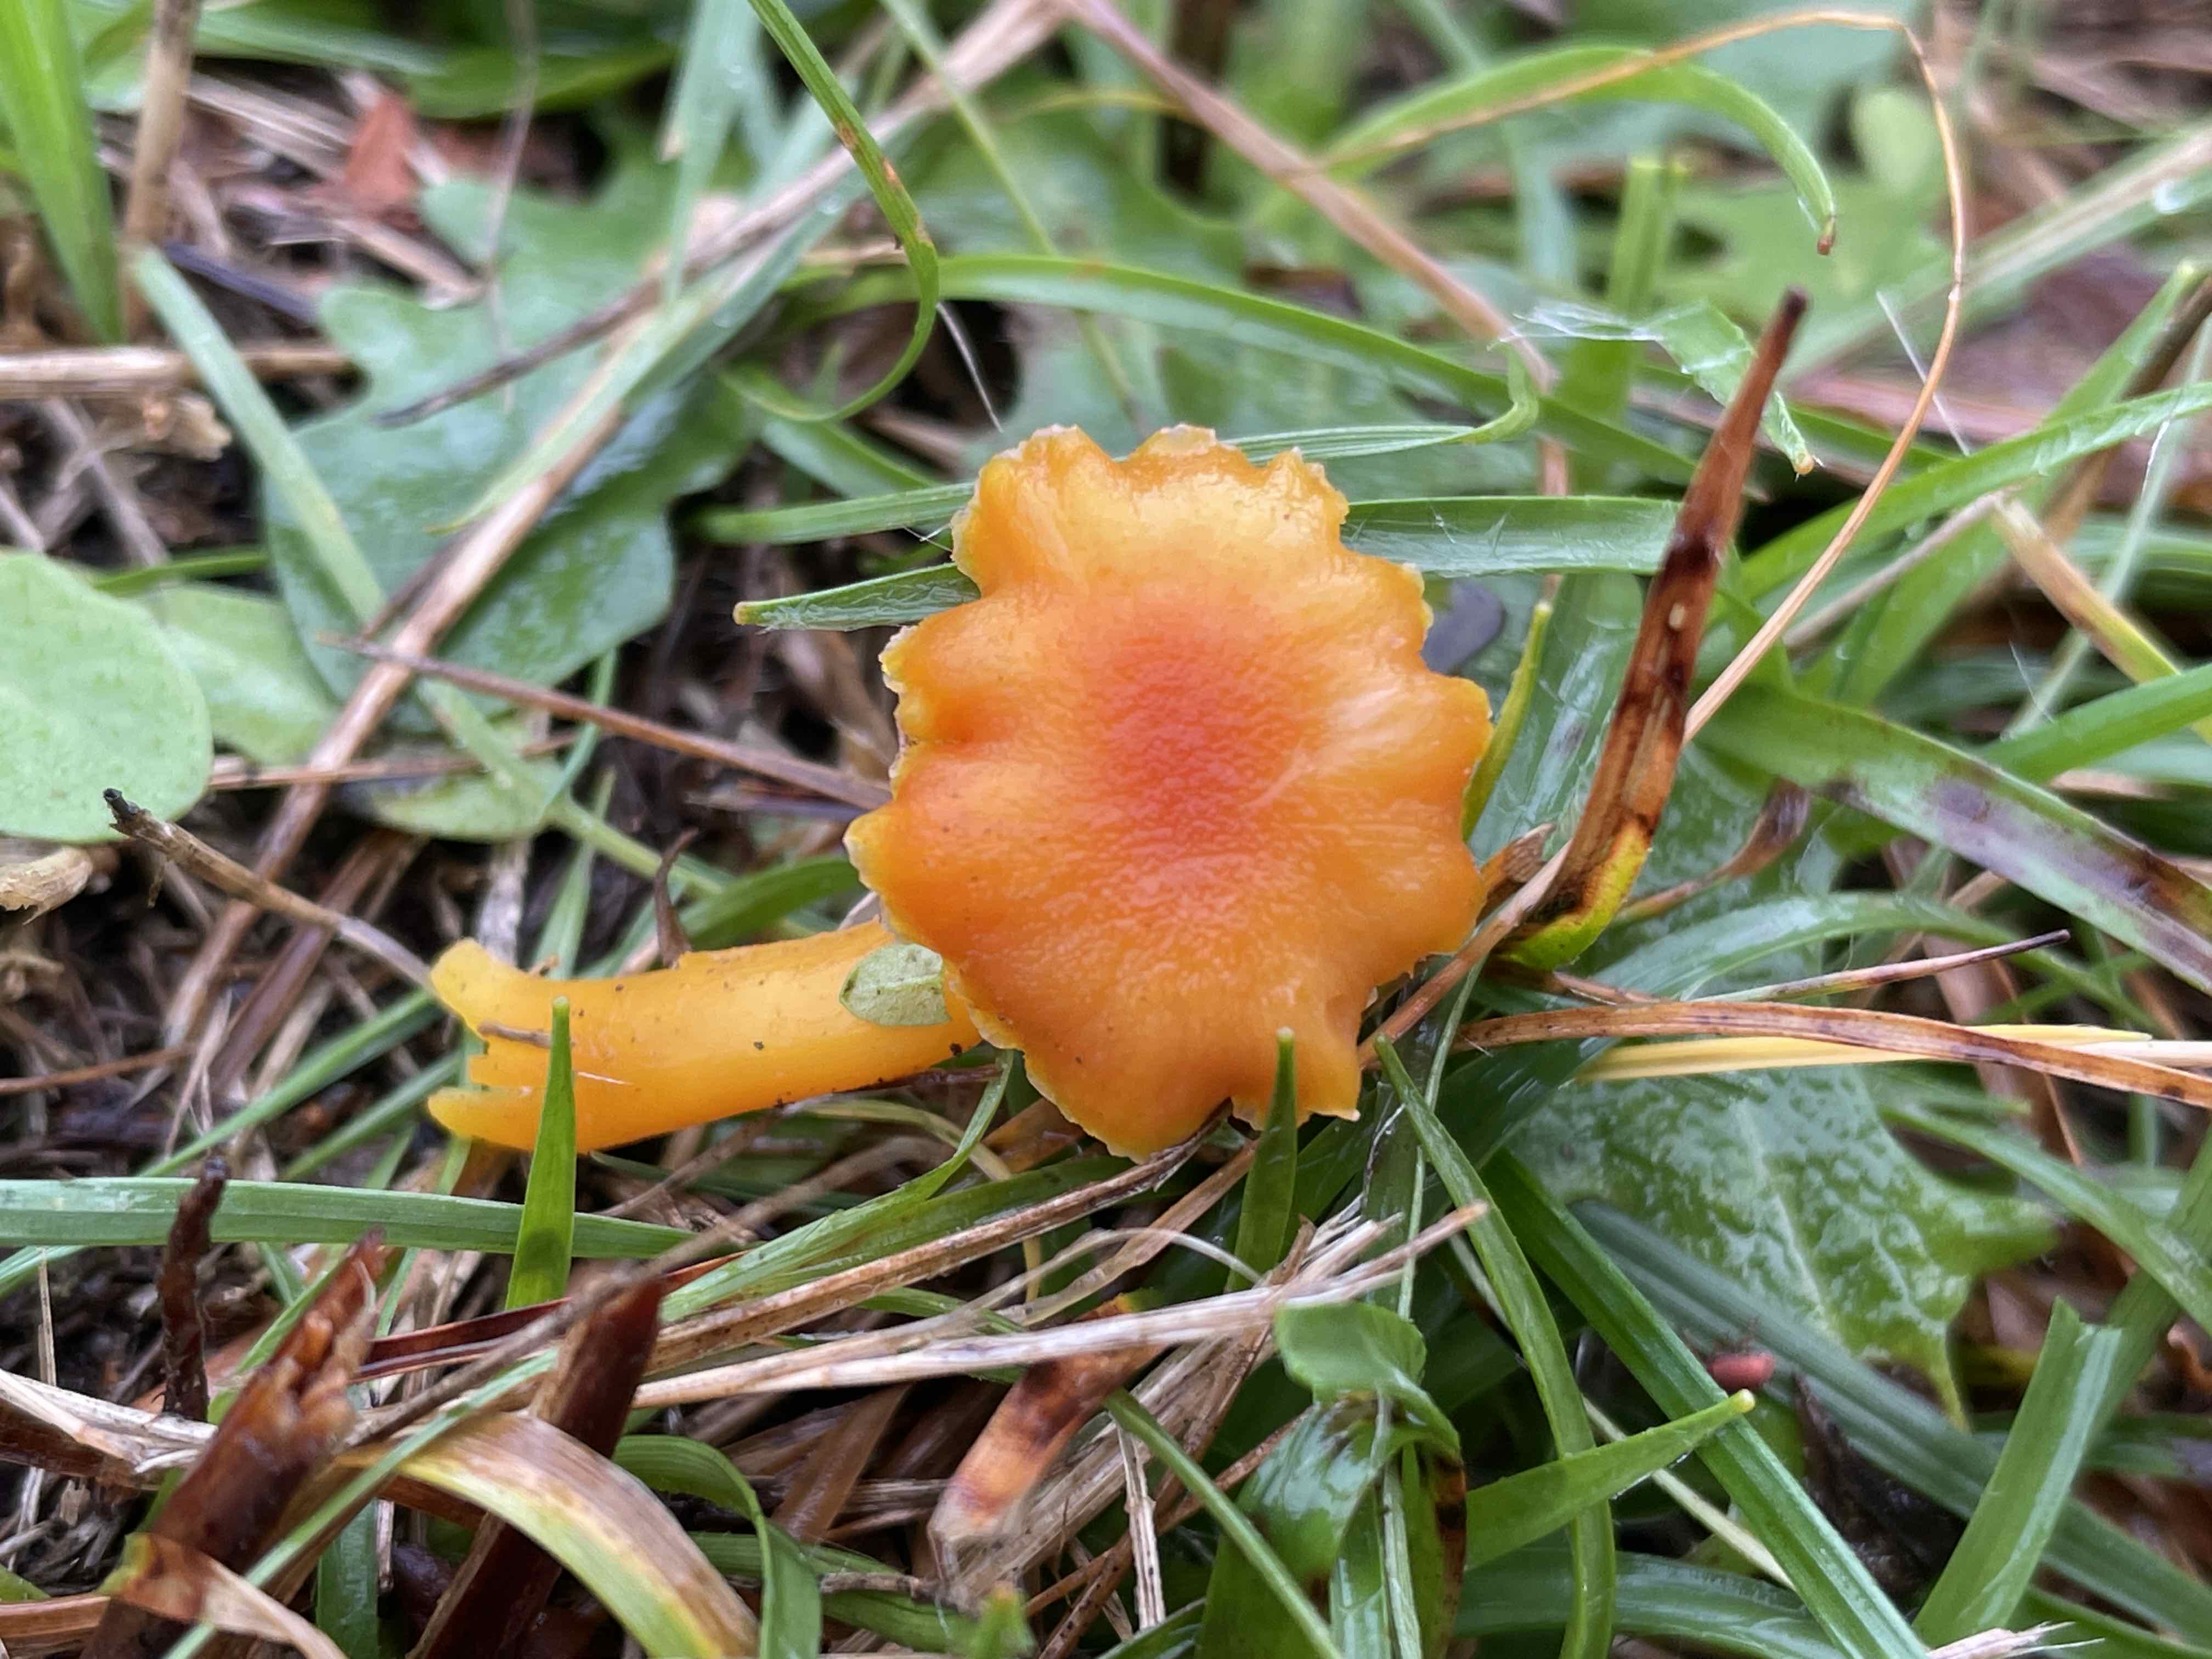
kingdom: Fungi
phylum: Basidiomycota
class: Agaricomycetes
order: Agaricales
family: Hygrophoraceae
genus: Hygrocybe
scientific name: Hygrocybe
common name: vokshat
